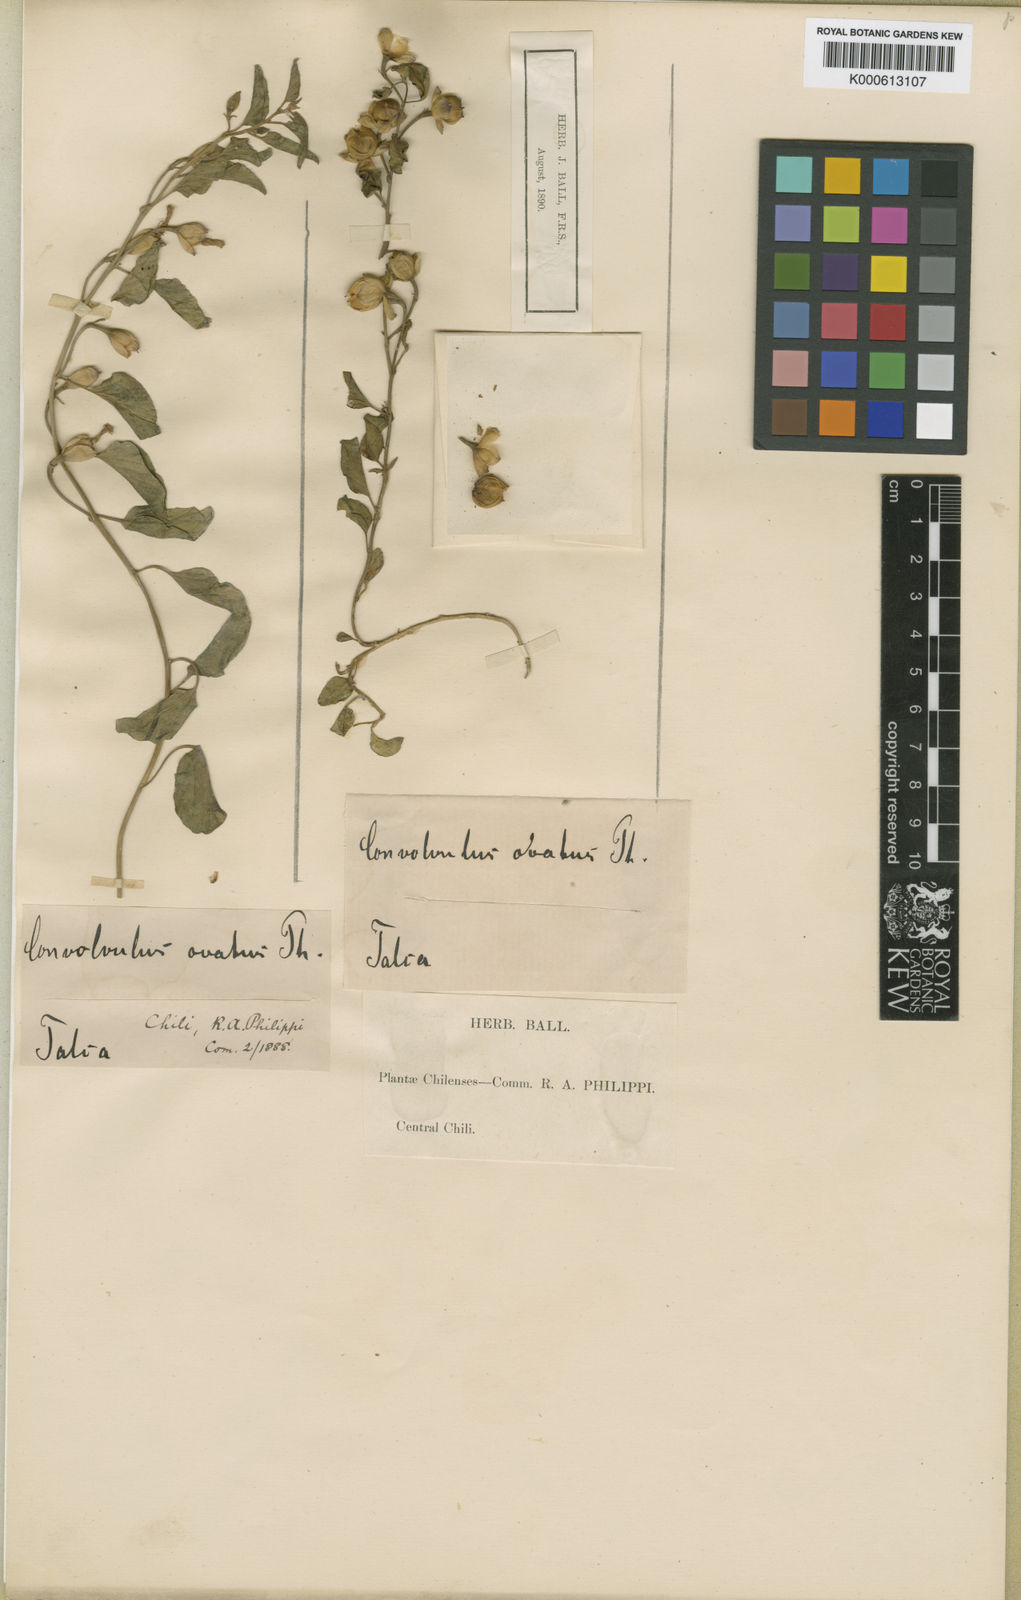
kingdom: Plantae
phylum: Tracheophyta
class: Magnoliopsida
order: Solanales
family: Convolvulaceae
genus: Convolvulus
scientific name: Convolvulus demissus
